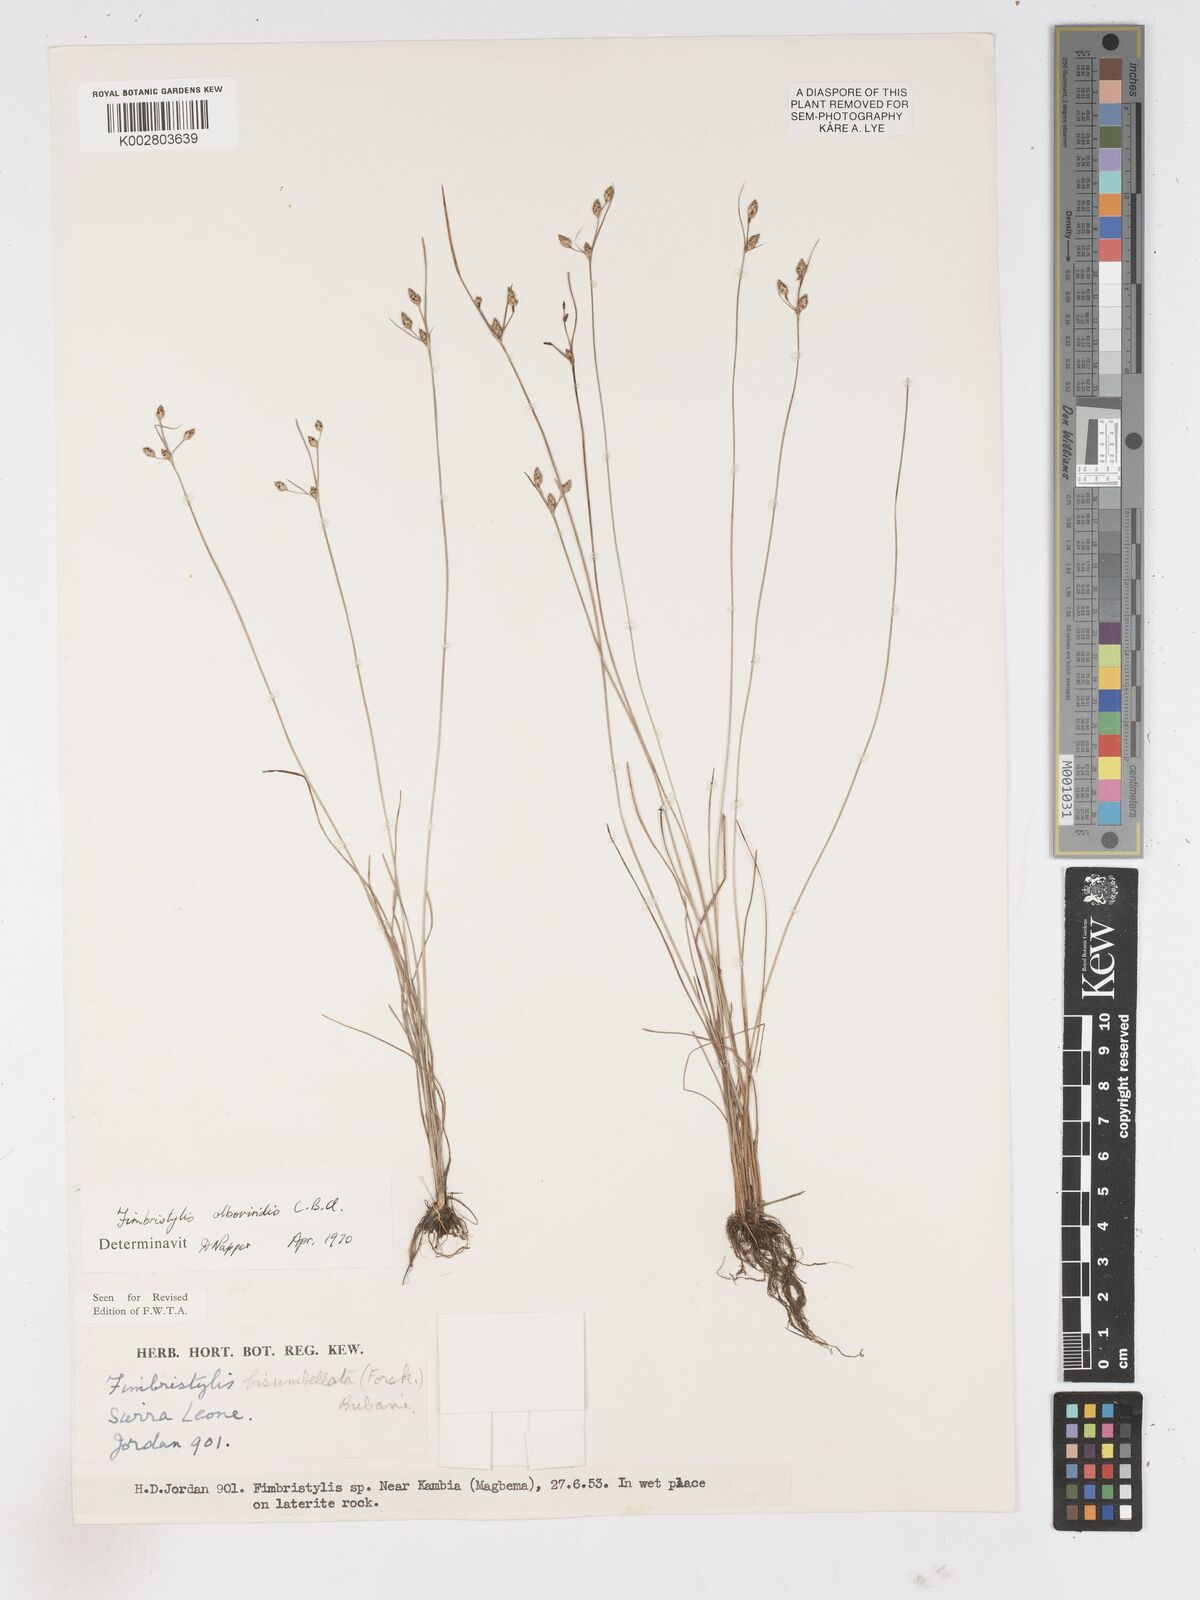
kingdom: Plantae
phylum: Tracheophyta
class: Liliopsida
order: Poales
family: Cyperaceae
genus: Fimbristylis
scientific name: Fimbristylis alboviridis
